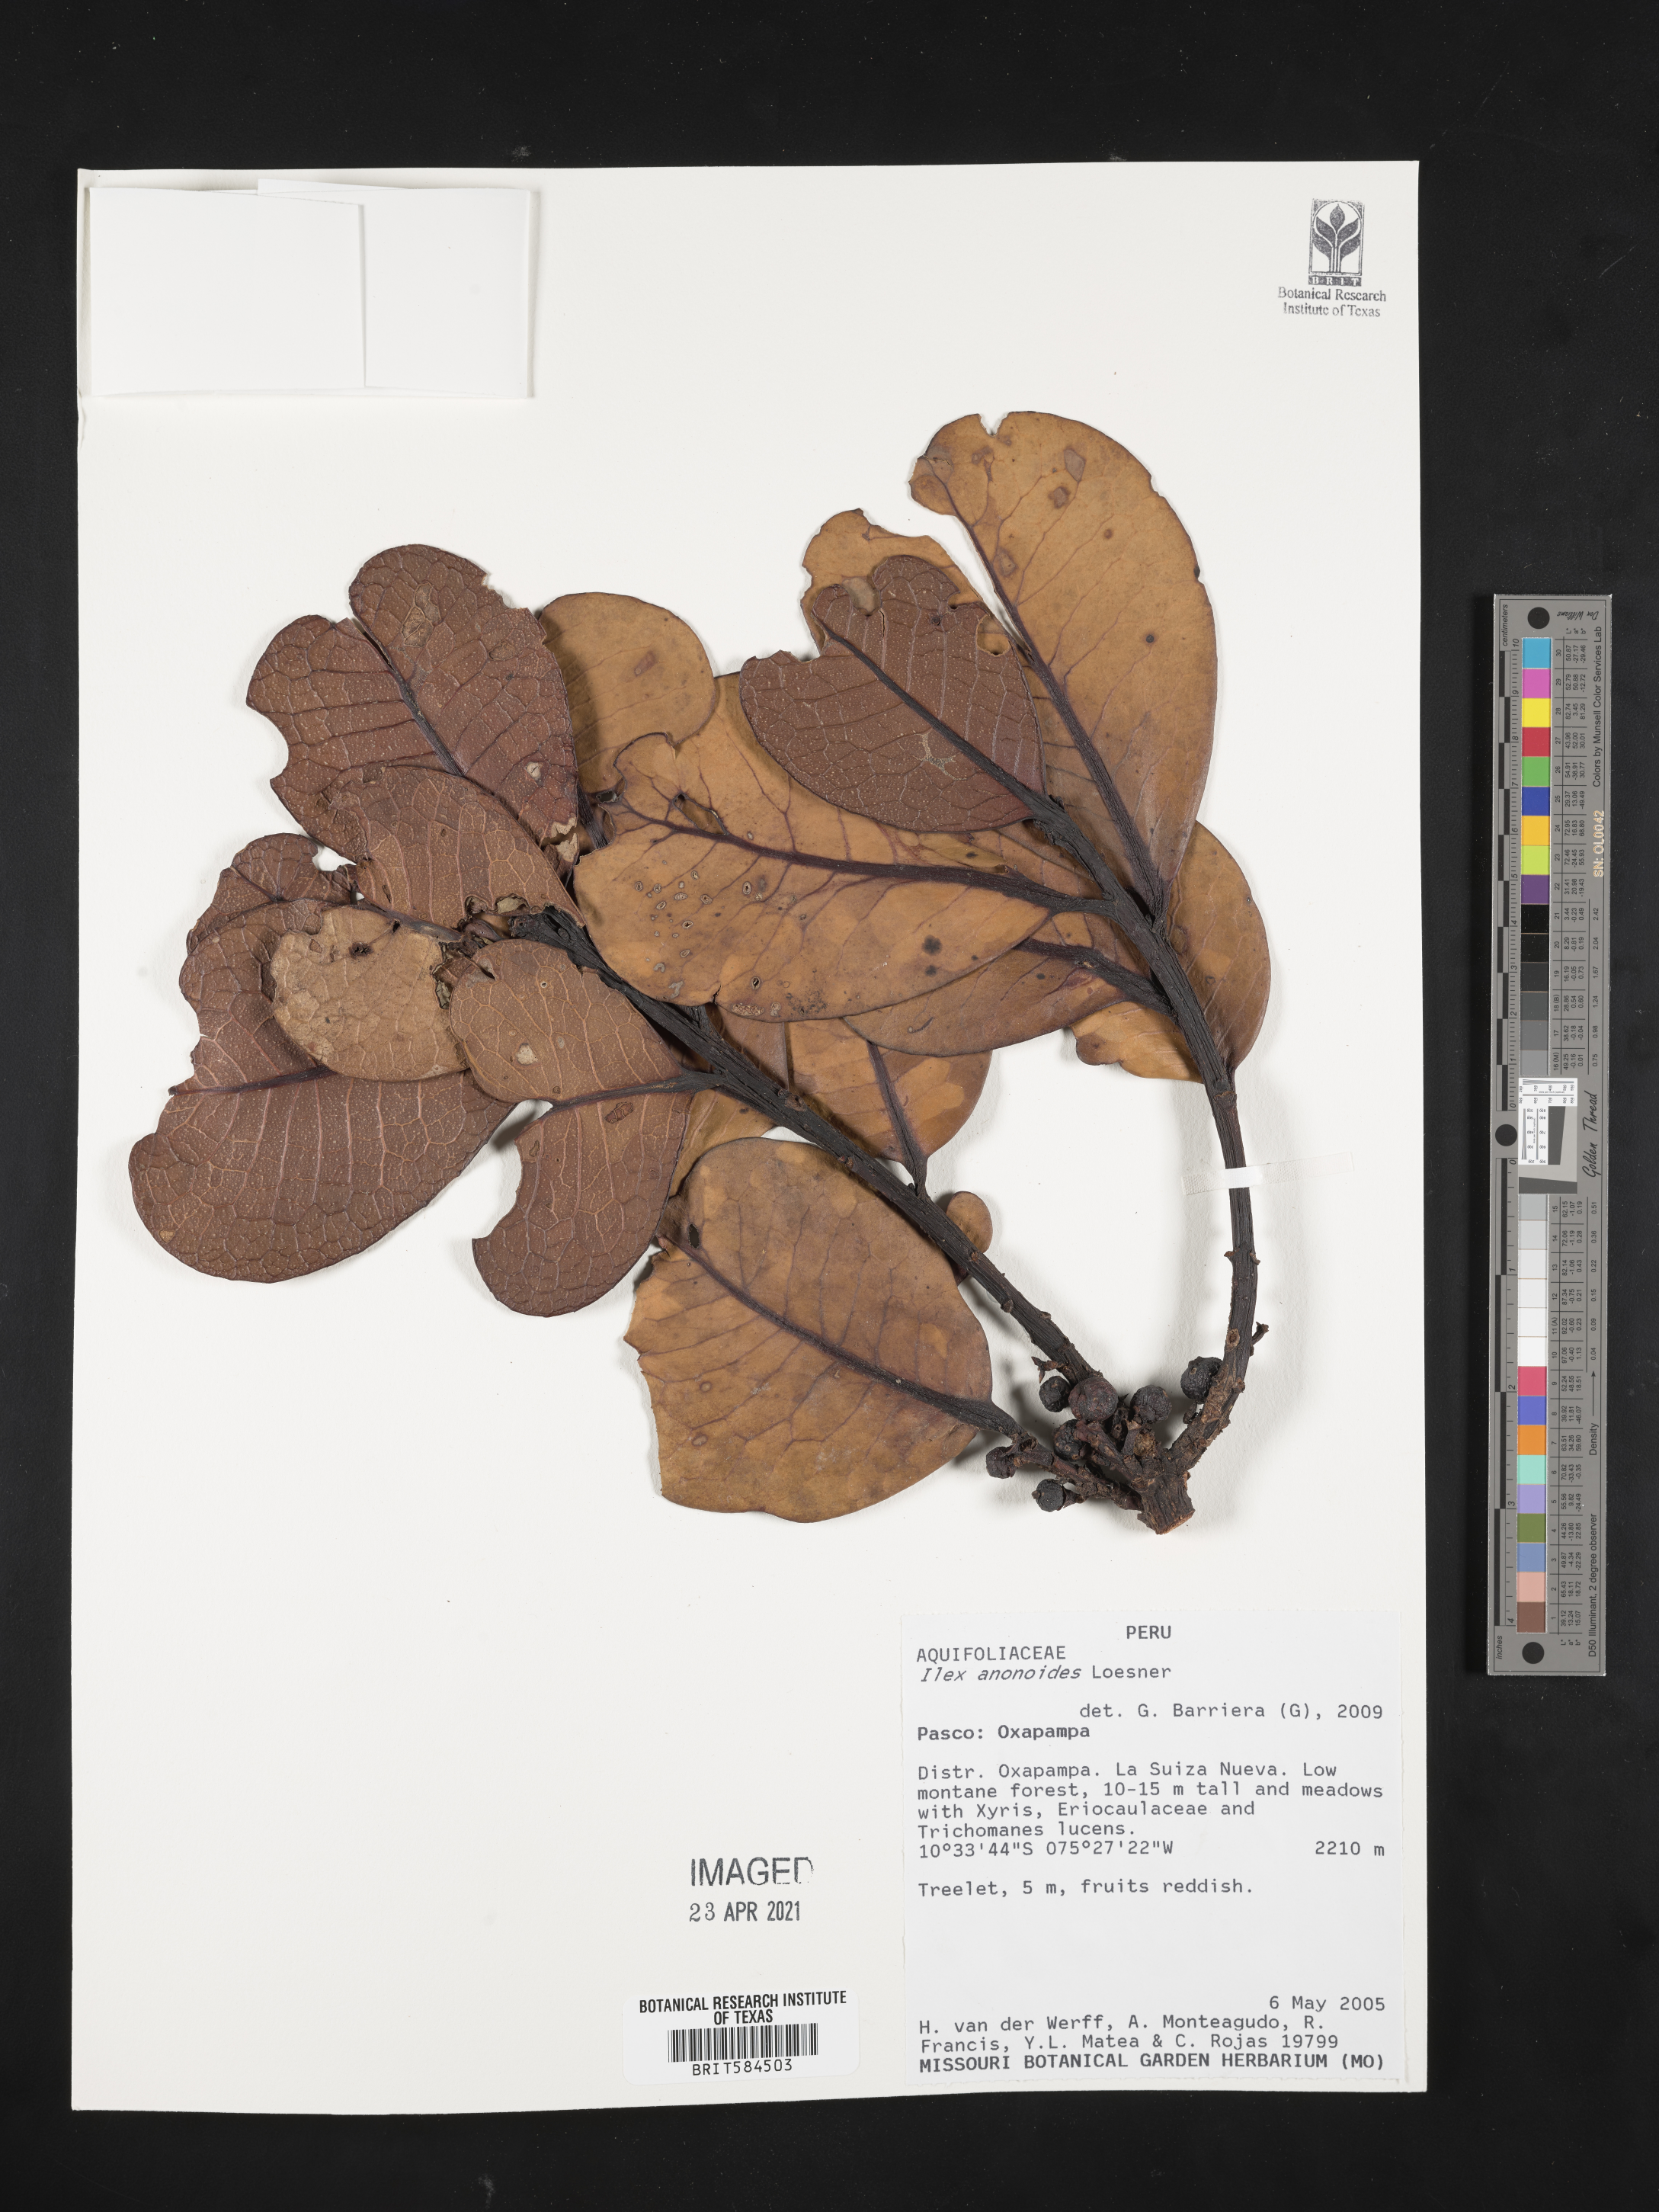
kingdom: Plantae
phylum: Tracheophyta
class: Magnoliopsida
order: Aquifoliales
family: Aquifoliaceae
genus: Ilex
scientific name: Ilex anonoides
